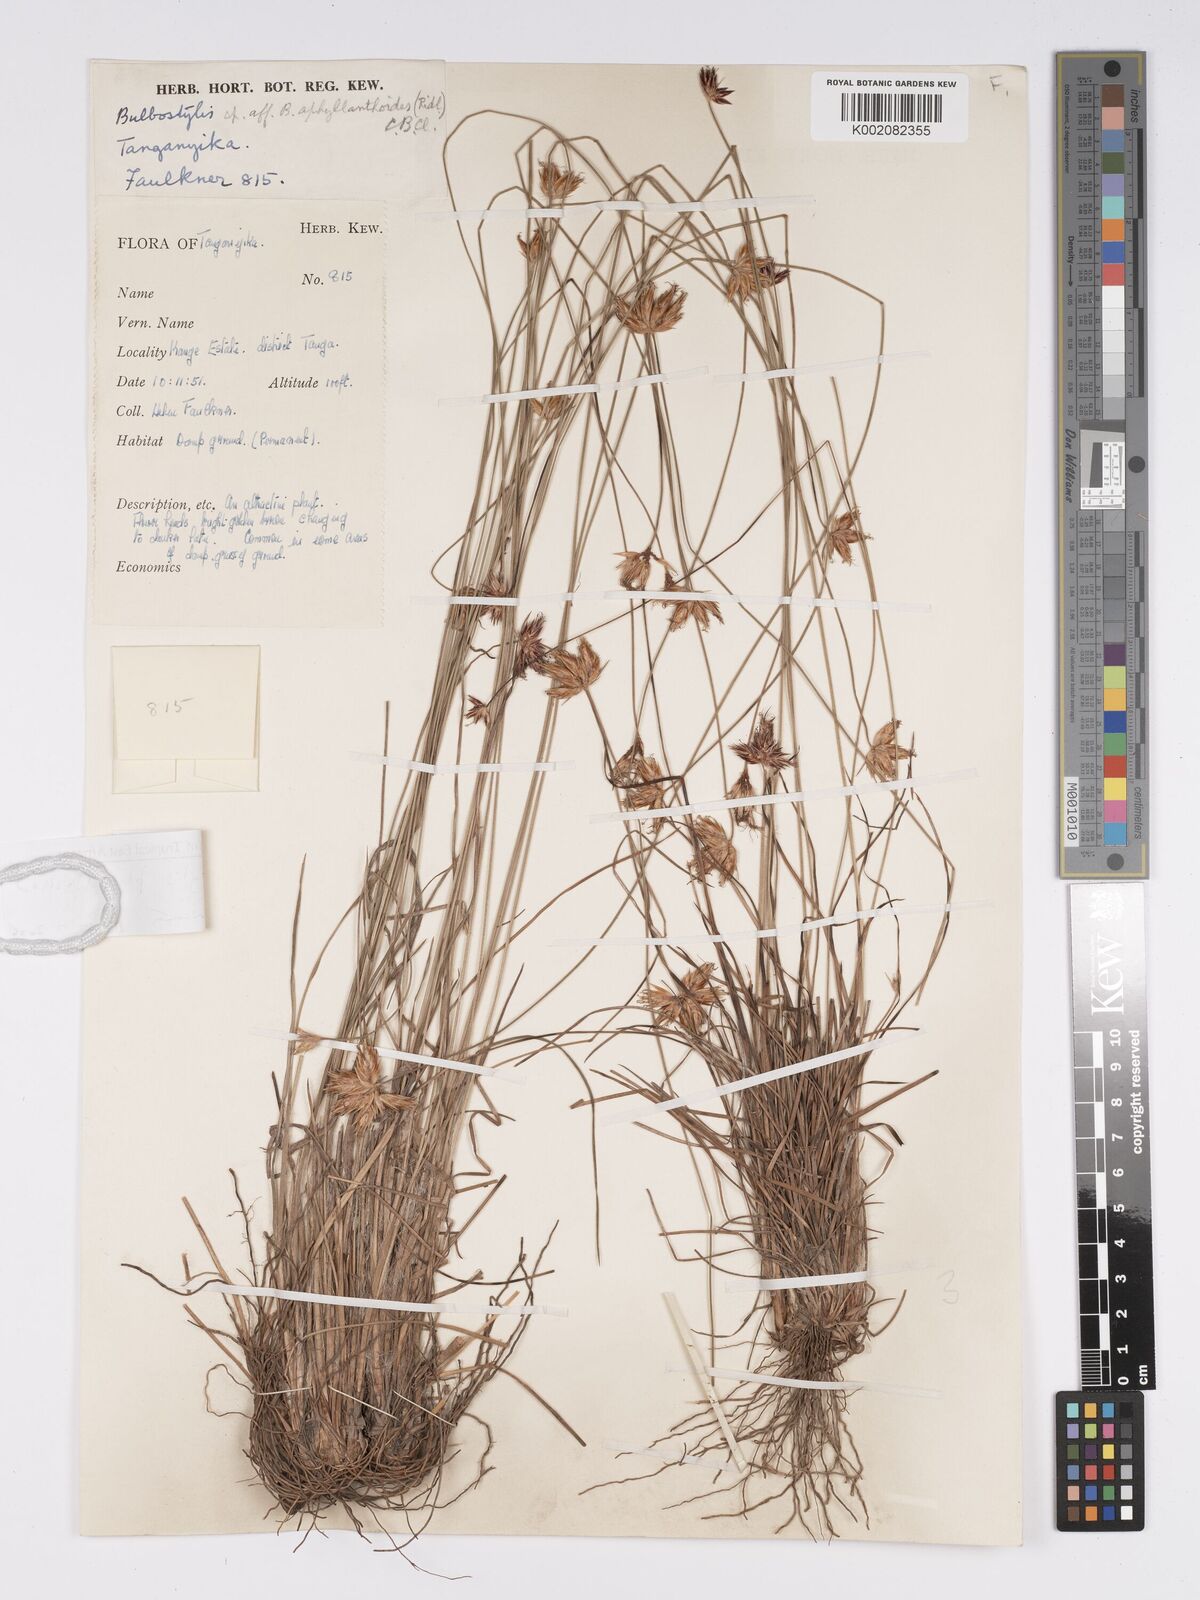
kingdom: Plantae
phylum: Tracheophyta
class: Liliopsida
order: Poales
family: Cyperaceae
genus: Bulbostylis
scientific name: Bulbostylis pilosa
